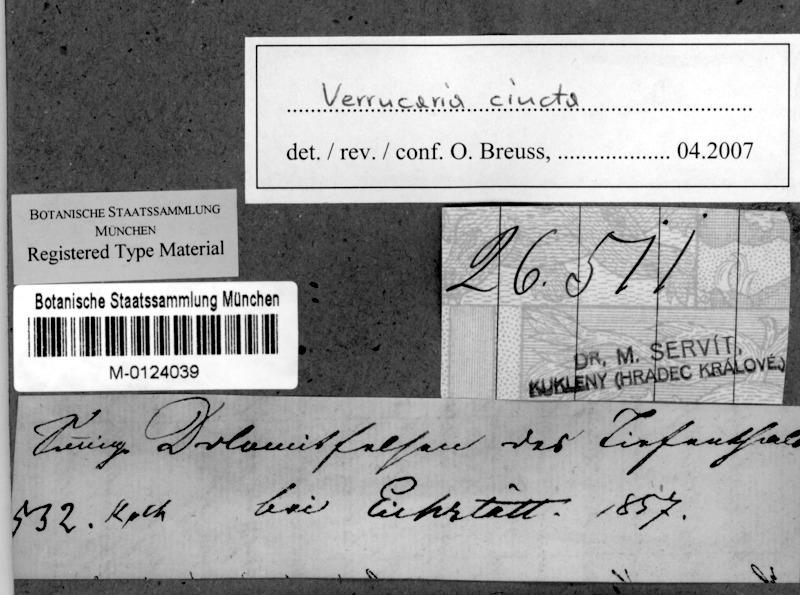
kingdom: Fungi
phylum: Ascomycota
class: Eurotiomycetes
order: Verrucariales
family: Verrucariaceae
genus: Verrucaria
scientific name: Verrucaria cincta
